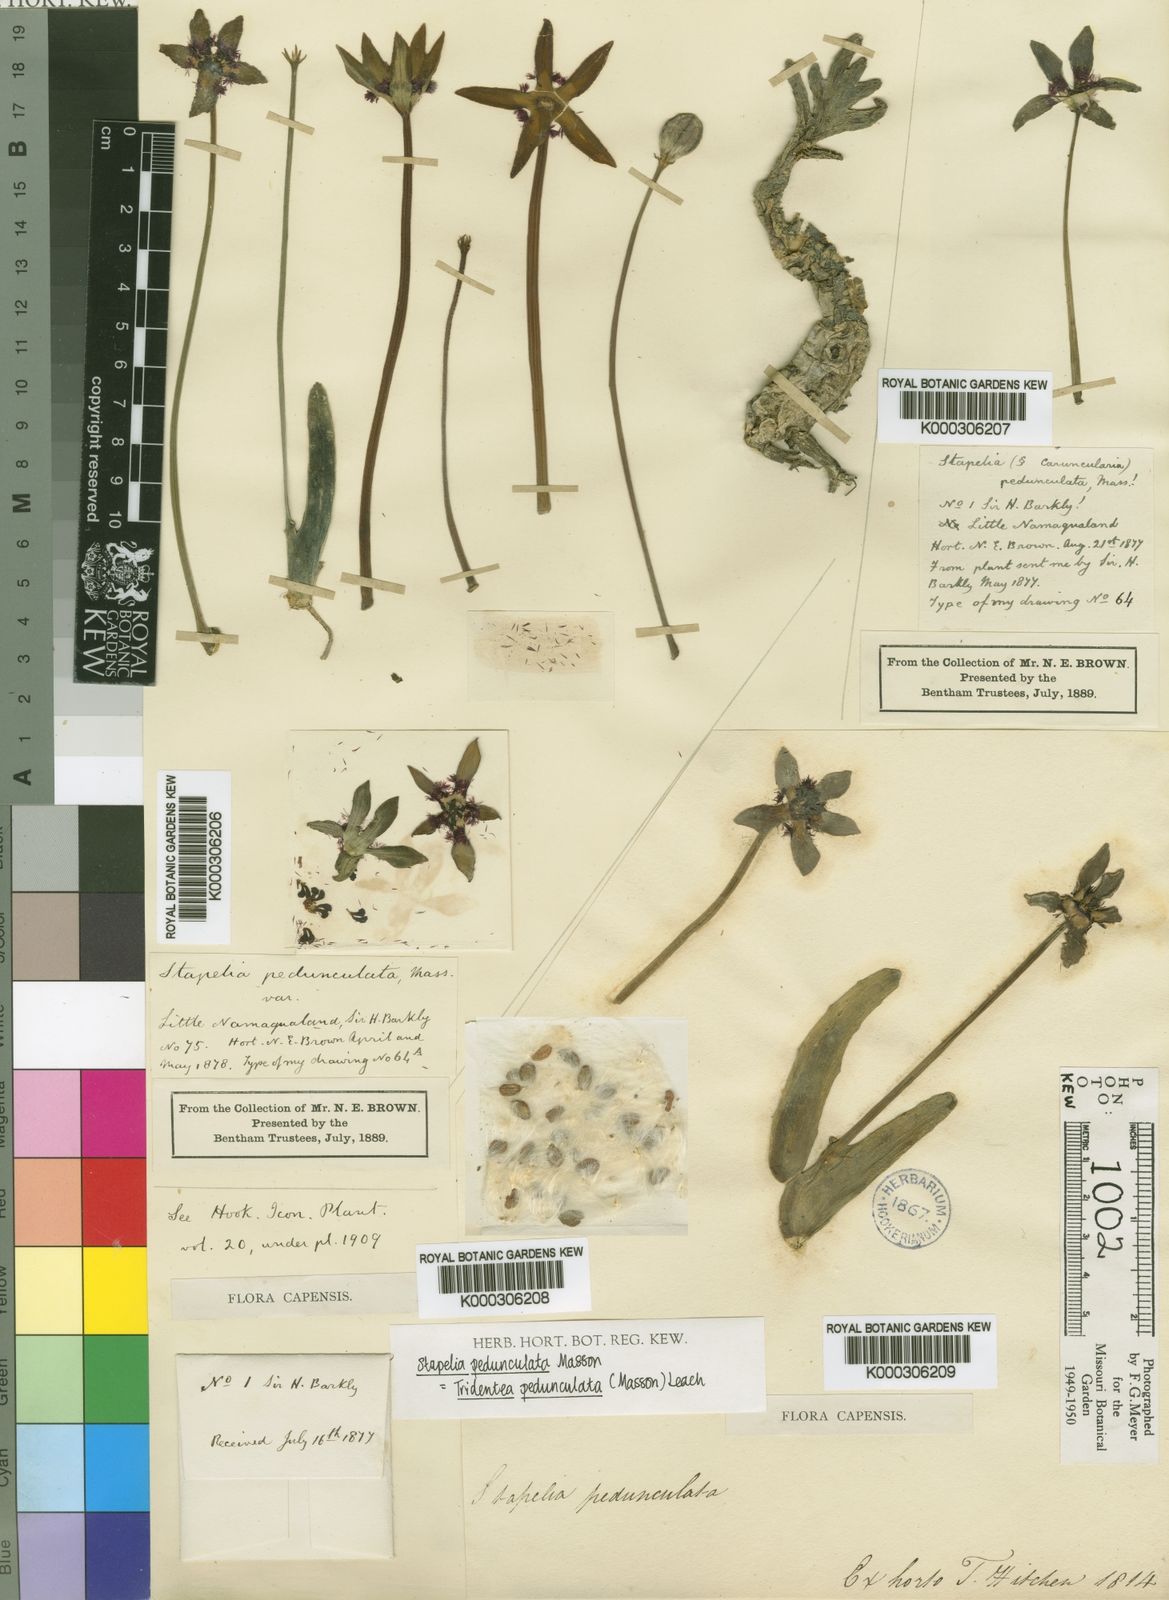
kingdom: Plantae
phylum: Tracheophyta
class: Magnoliopsida
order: Gentianales
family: Apocynaceae
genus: Ceropegia
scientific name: Ceropegia penduliflora
